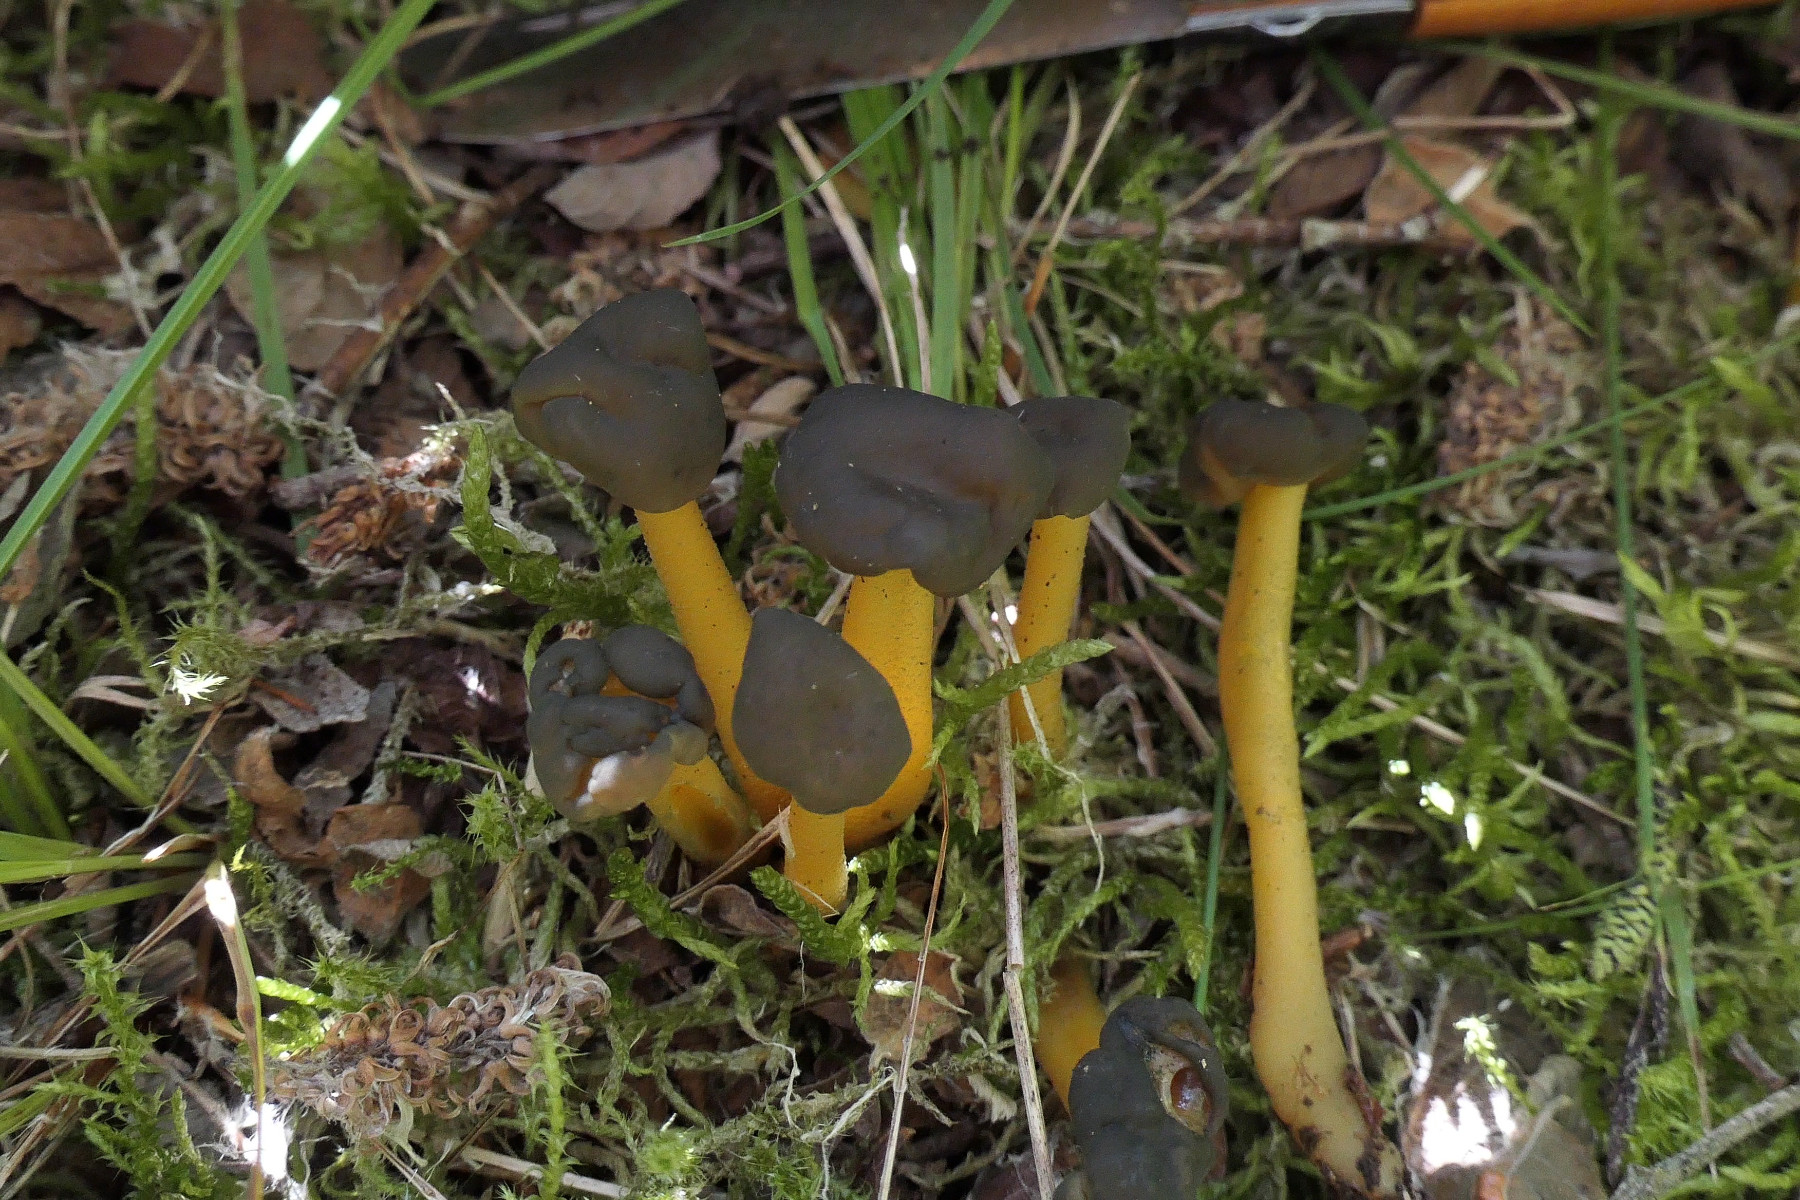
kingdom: Fungi
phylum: Ascomycota
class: Leotiomycetes
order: Leotiales
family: Leotiaceae
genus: Leotia
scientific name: Leotia lubrica
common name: ravsvamp
